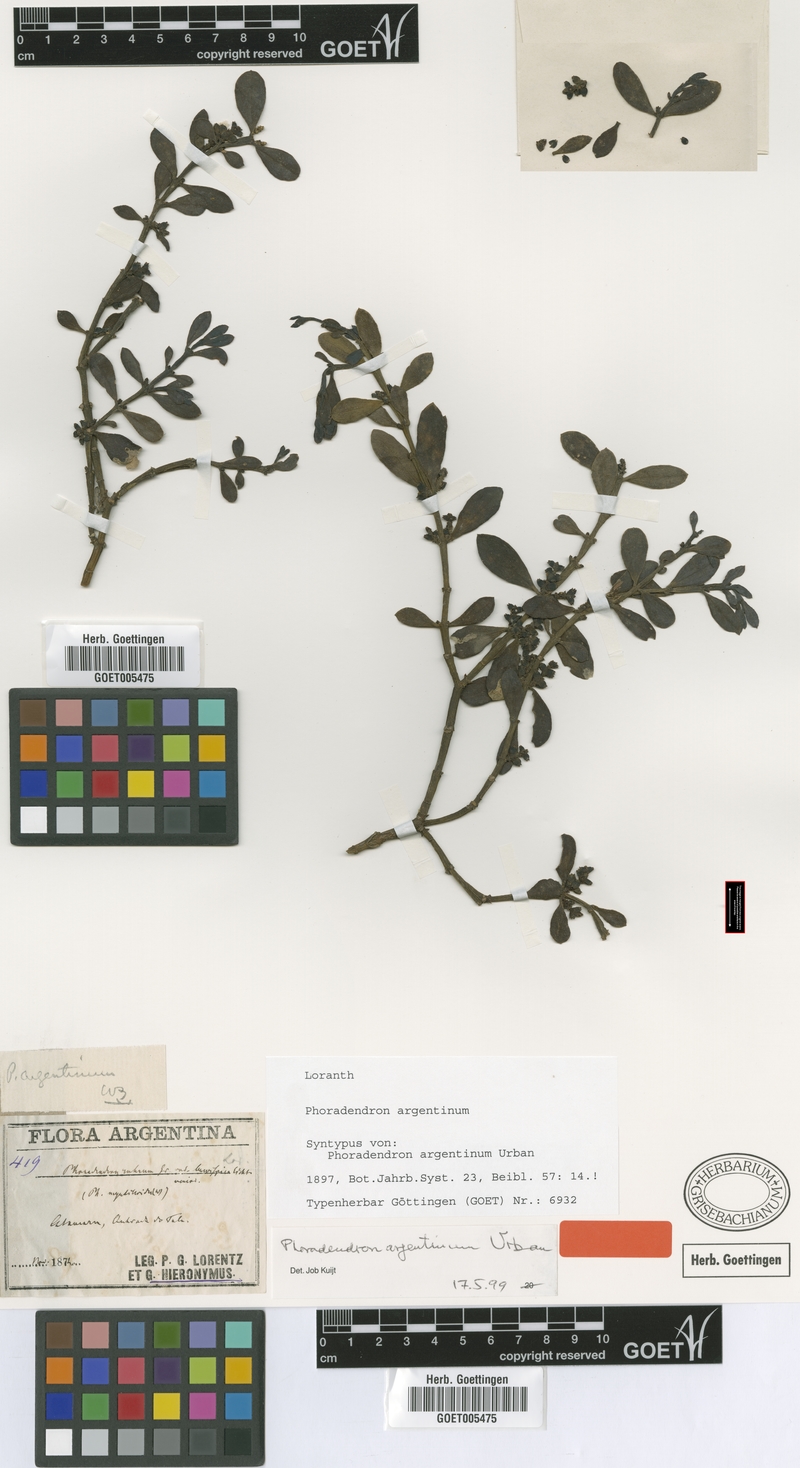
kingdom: Plantae
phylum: Tracheophyta
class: Magnoliopsida
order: Santalales
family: Viscaceae
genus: Phoradendron
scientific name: Phoradendron argentinum
